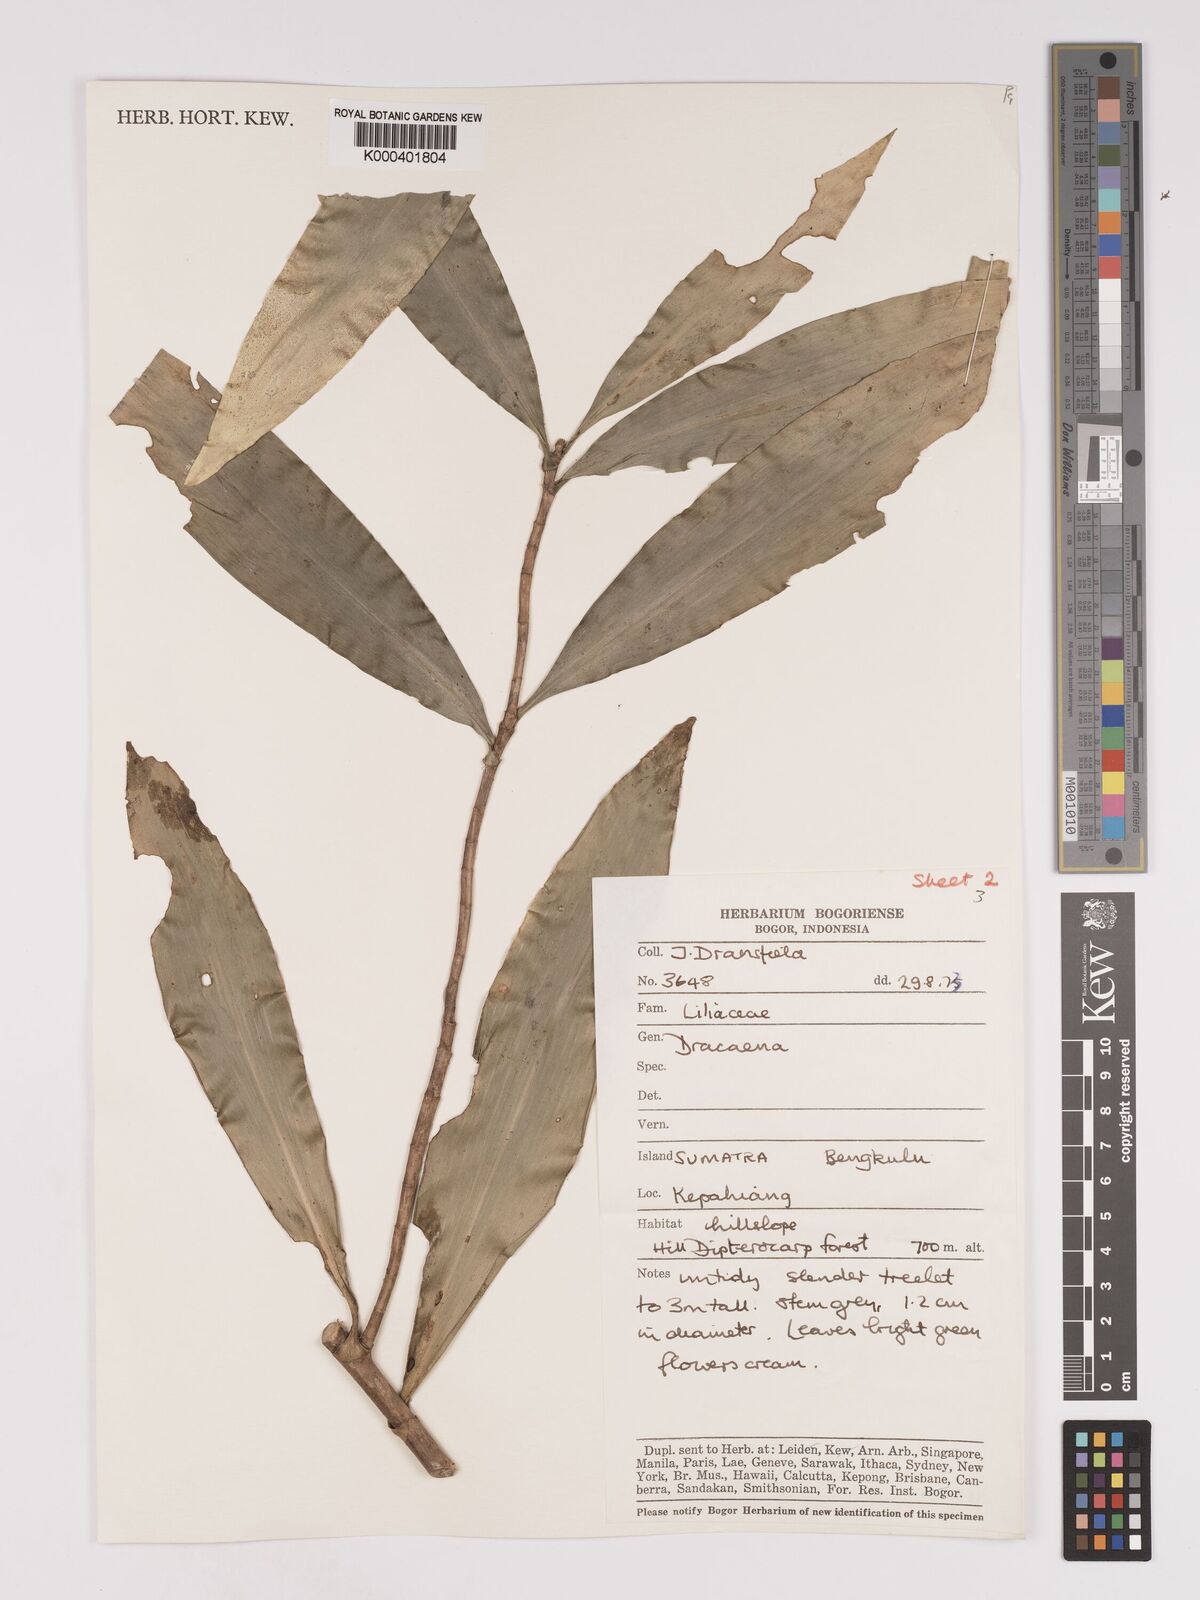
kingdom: Plantae
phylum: Tracheophyta
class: Liliopsida
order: Asparagales
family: Asparagaceae
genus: Dracaena
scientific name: Dracaena
